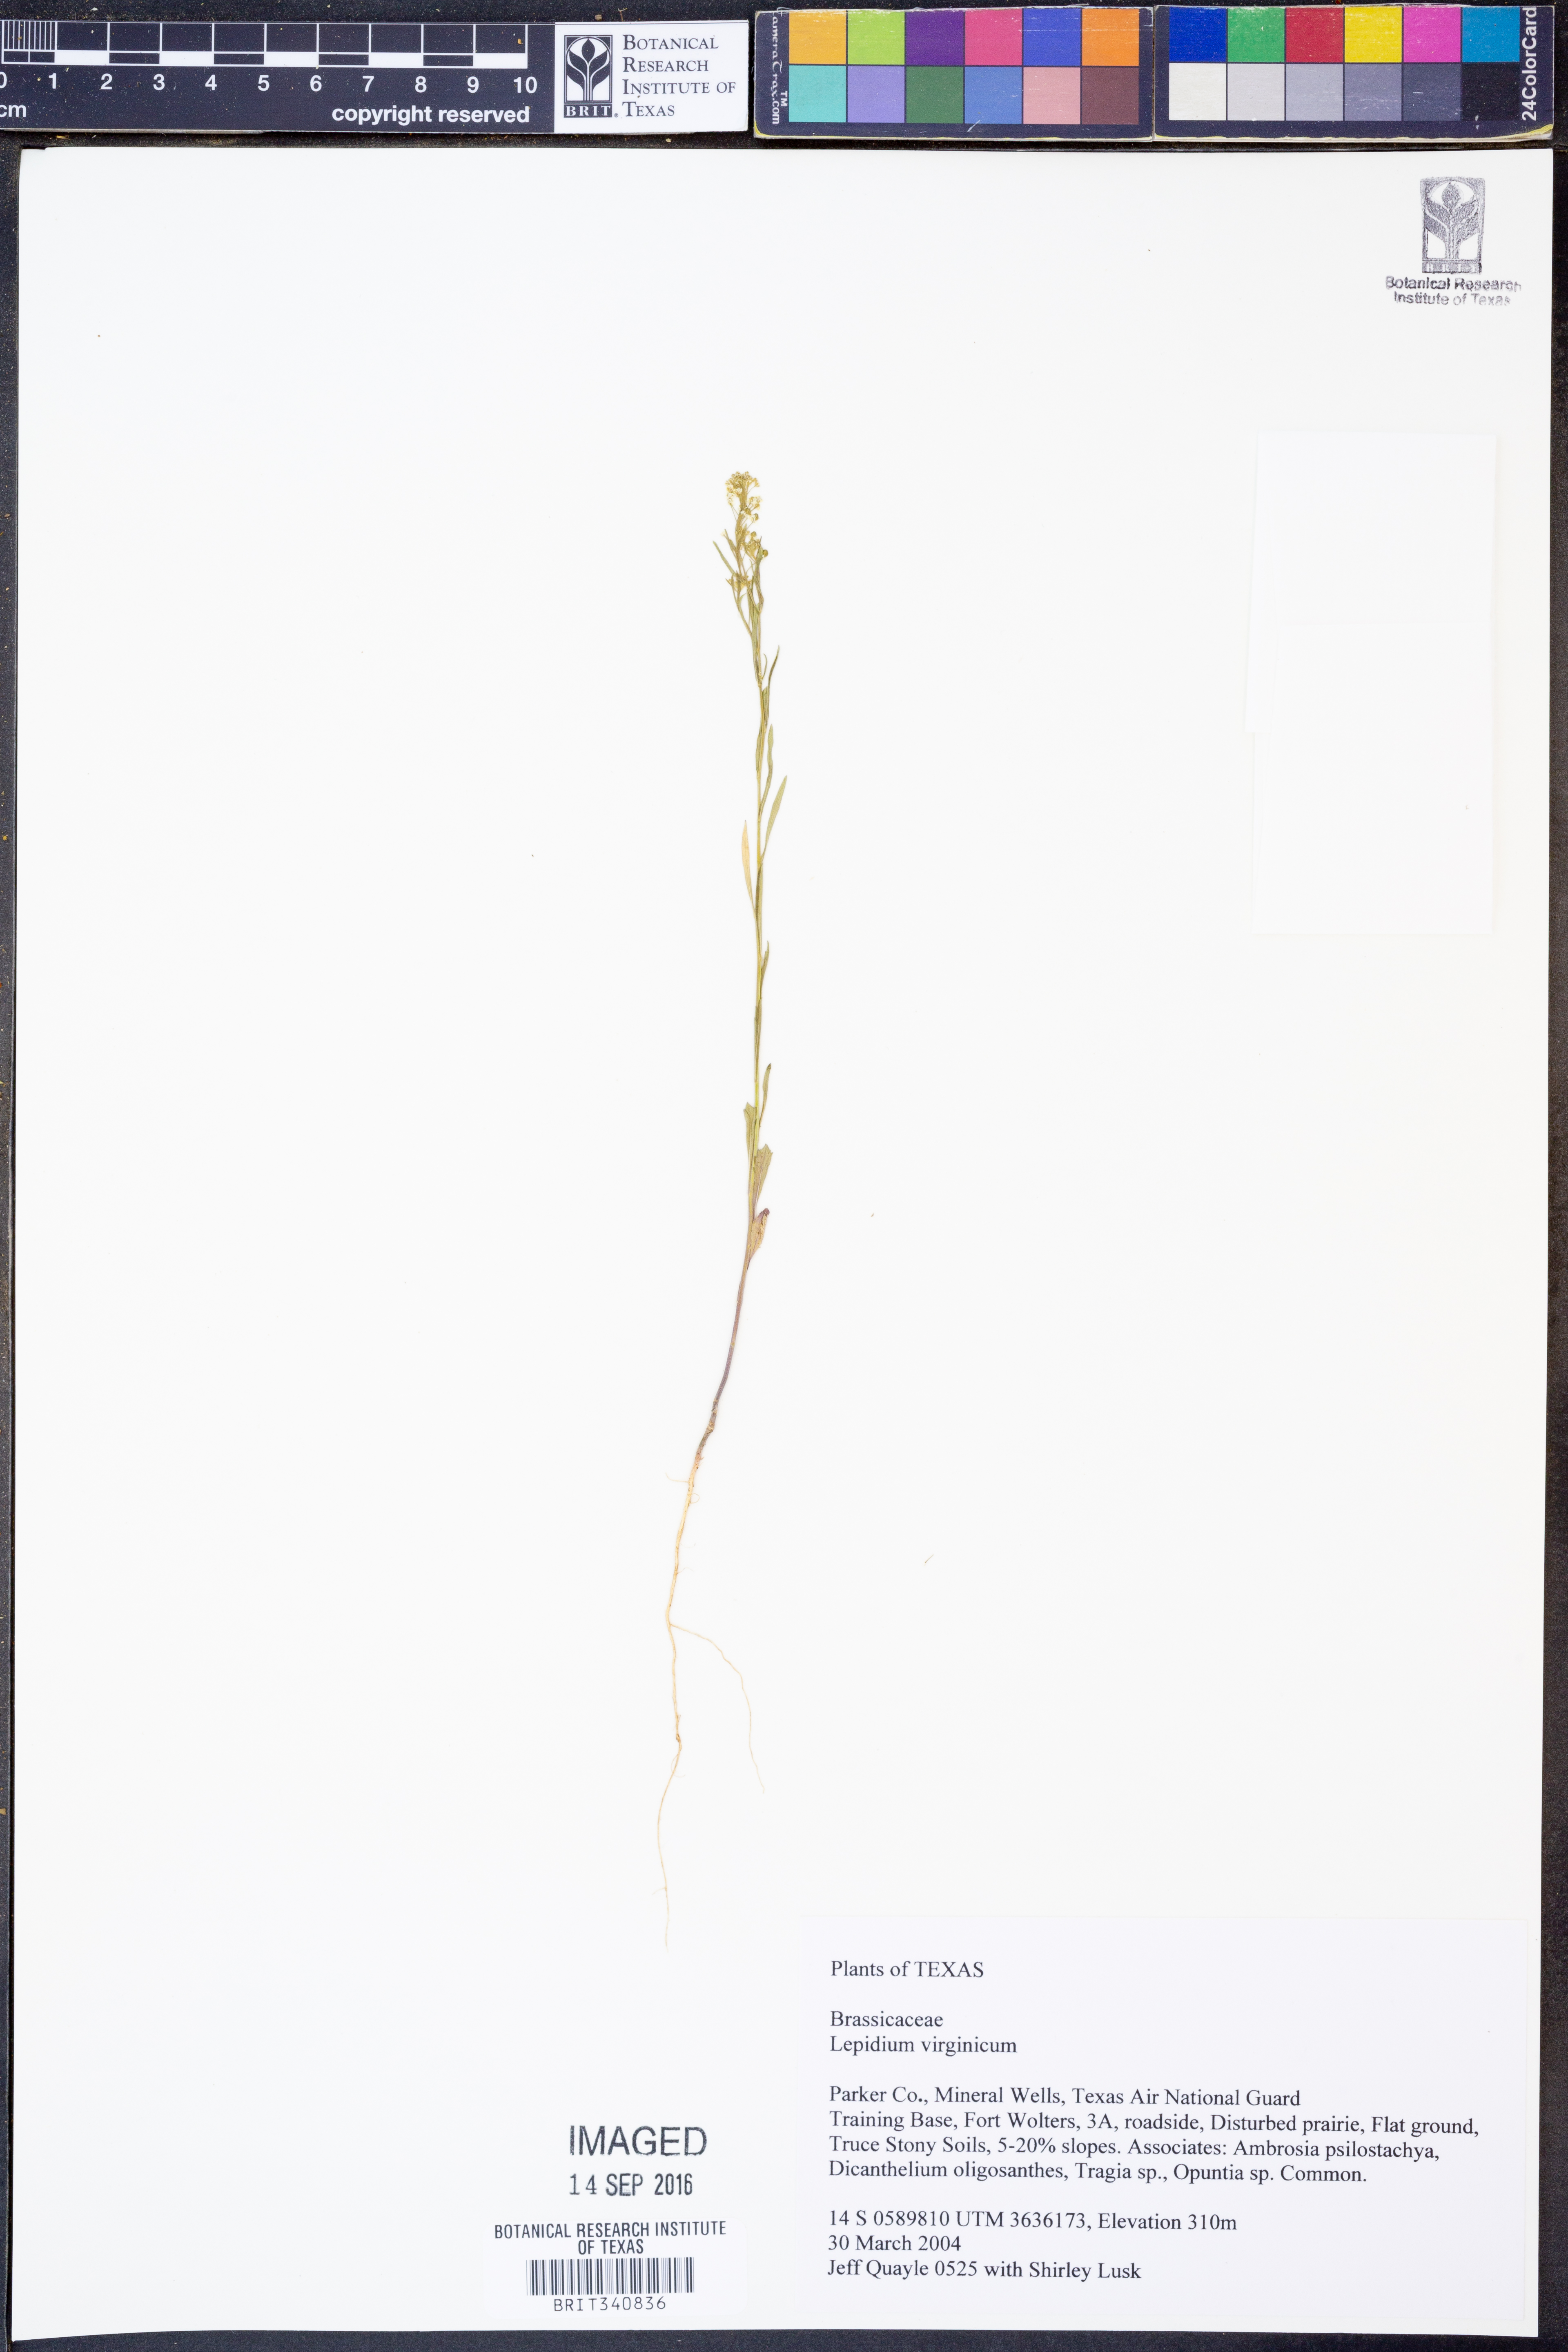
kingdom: Plantae
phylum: Tracheophyta
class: Magnoliopsida
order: Brassicales
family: Brassicaceae
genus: Lepidium
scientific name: Lepidium virginicum
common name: Least pepperwort
